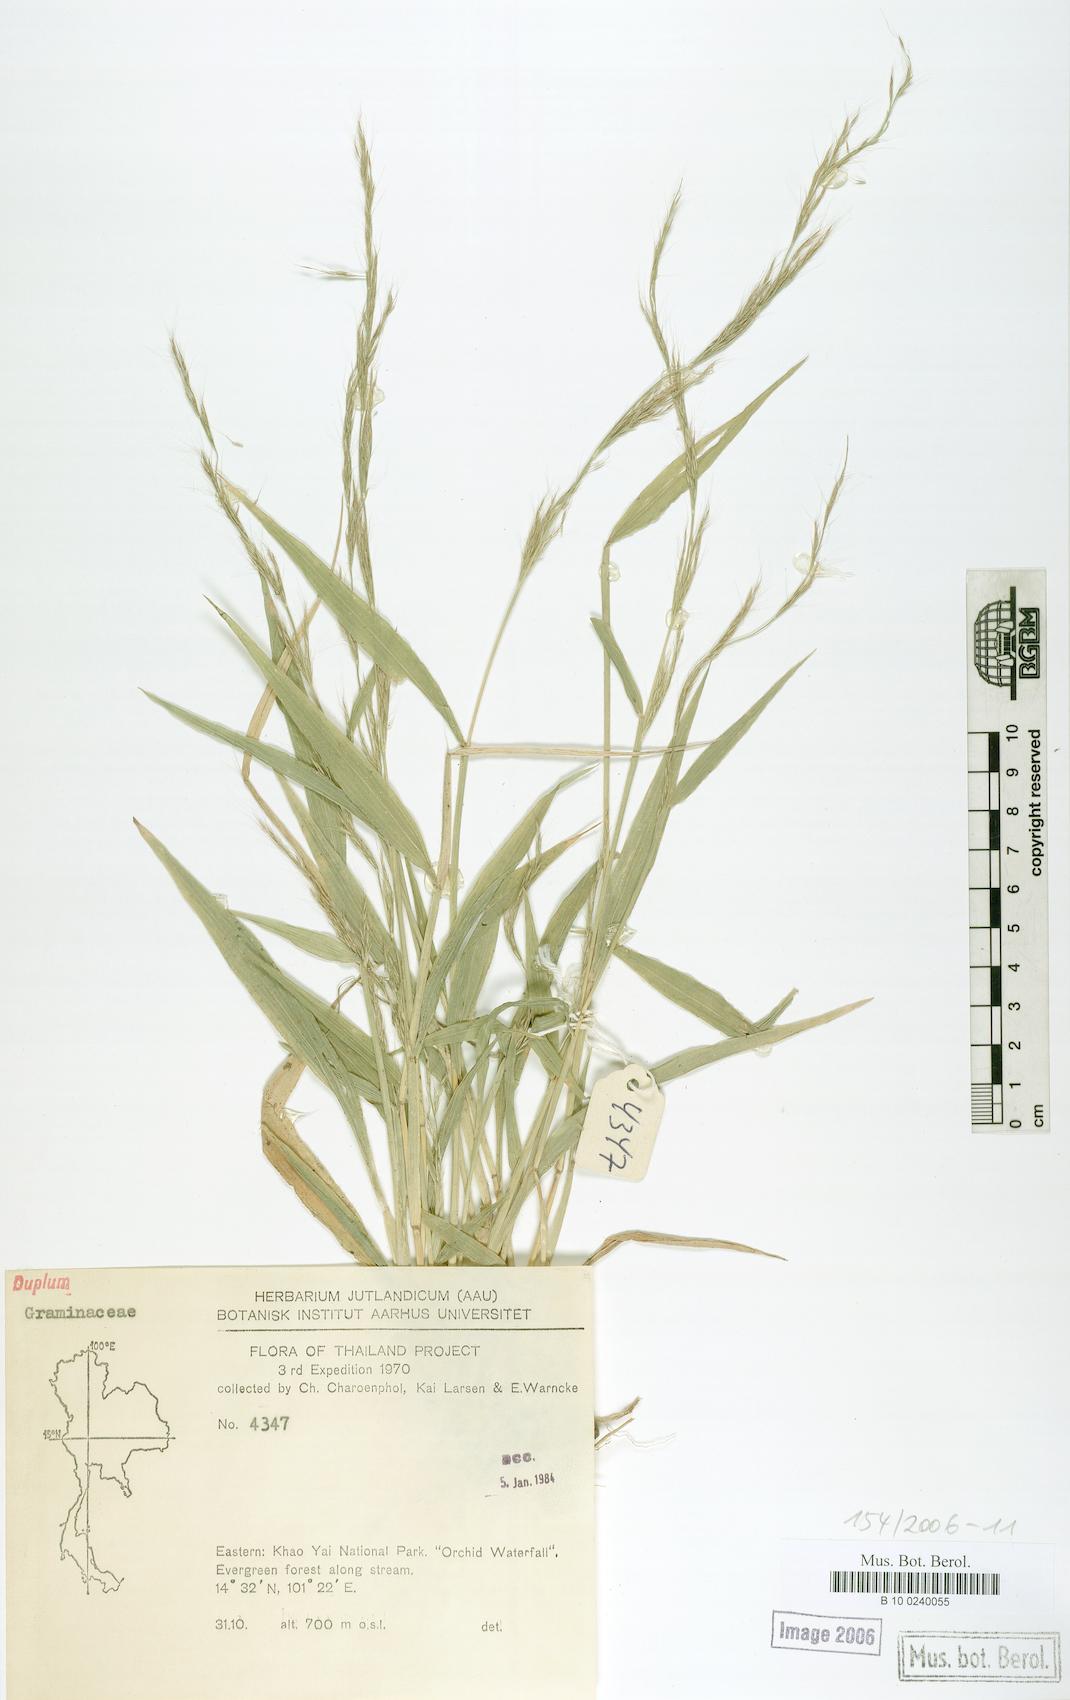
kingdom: Plantae
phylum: Tracheophyta
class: Liliopsida
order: Poales
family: Poaceae
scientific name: Poaceae
